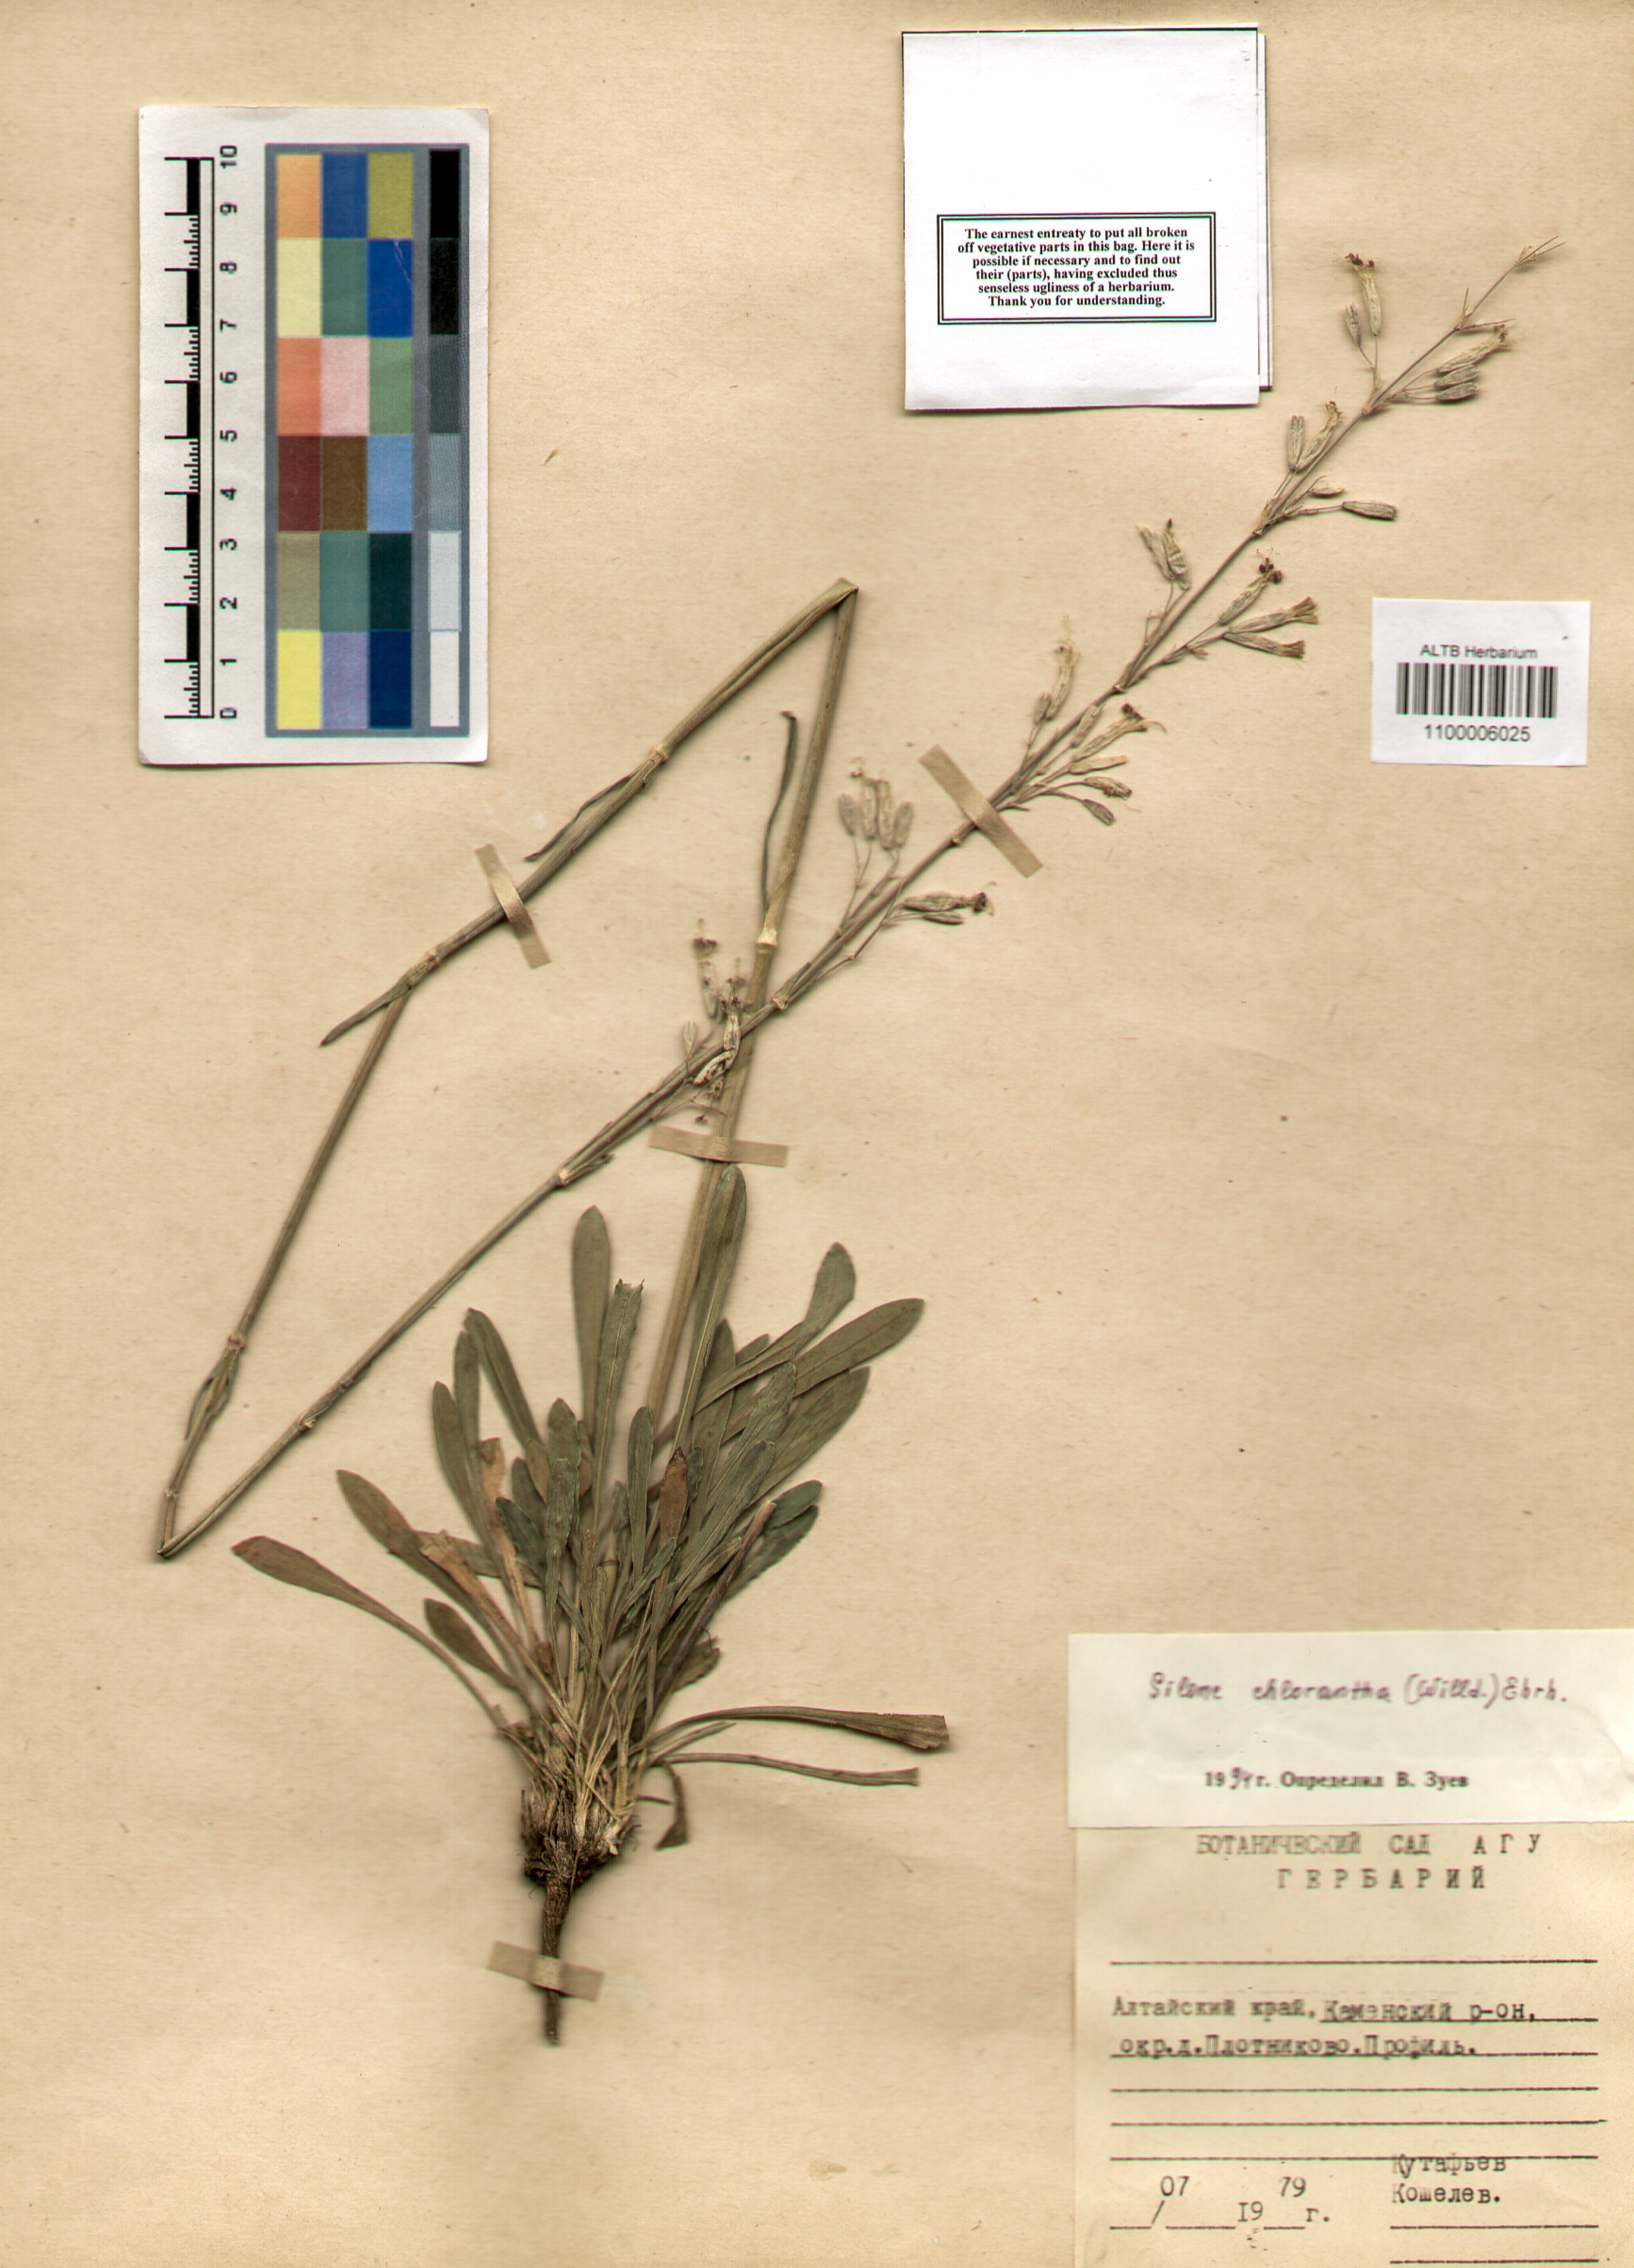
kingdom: Plantae
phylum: Tracheophyta
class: Magnoliopsida
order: Caryophyllales
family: Caryophyllaceae
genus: Silene
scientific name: Silene chlorantha
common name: Yellowgreen catchfly
